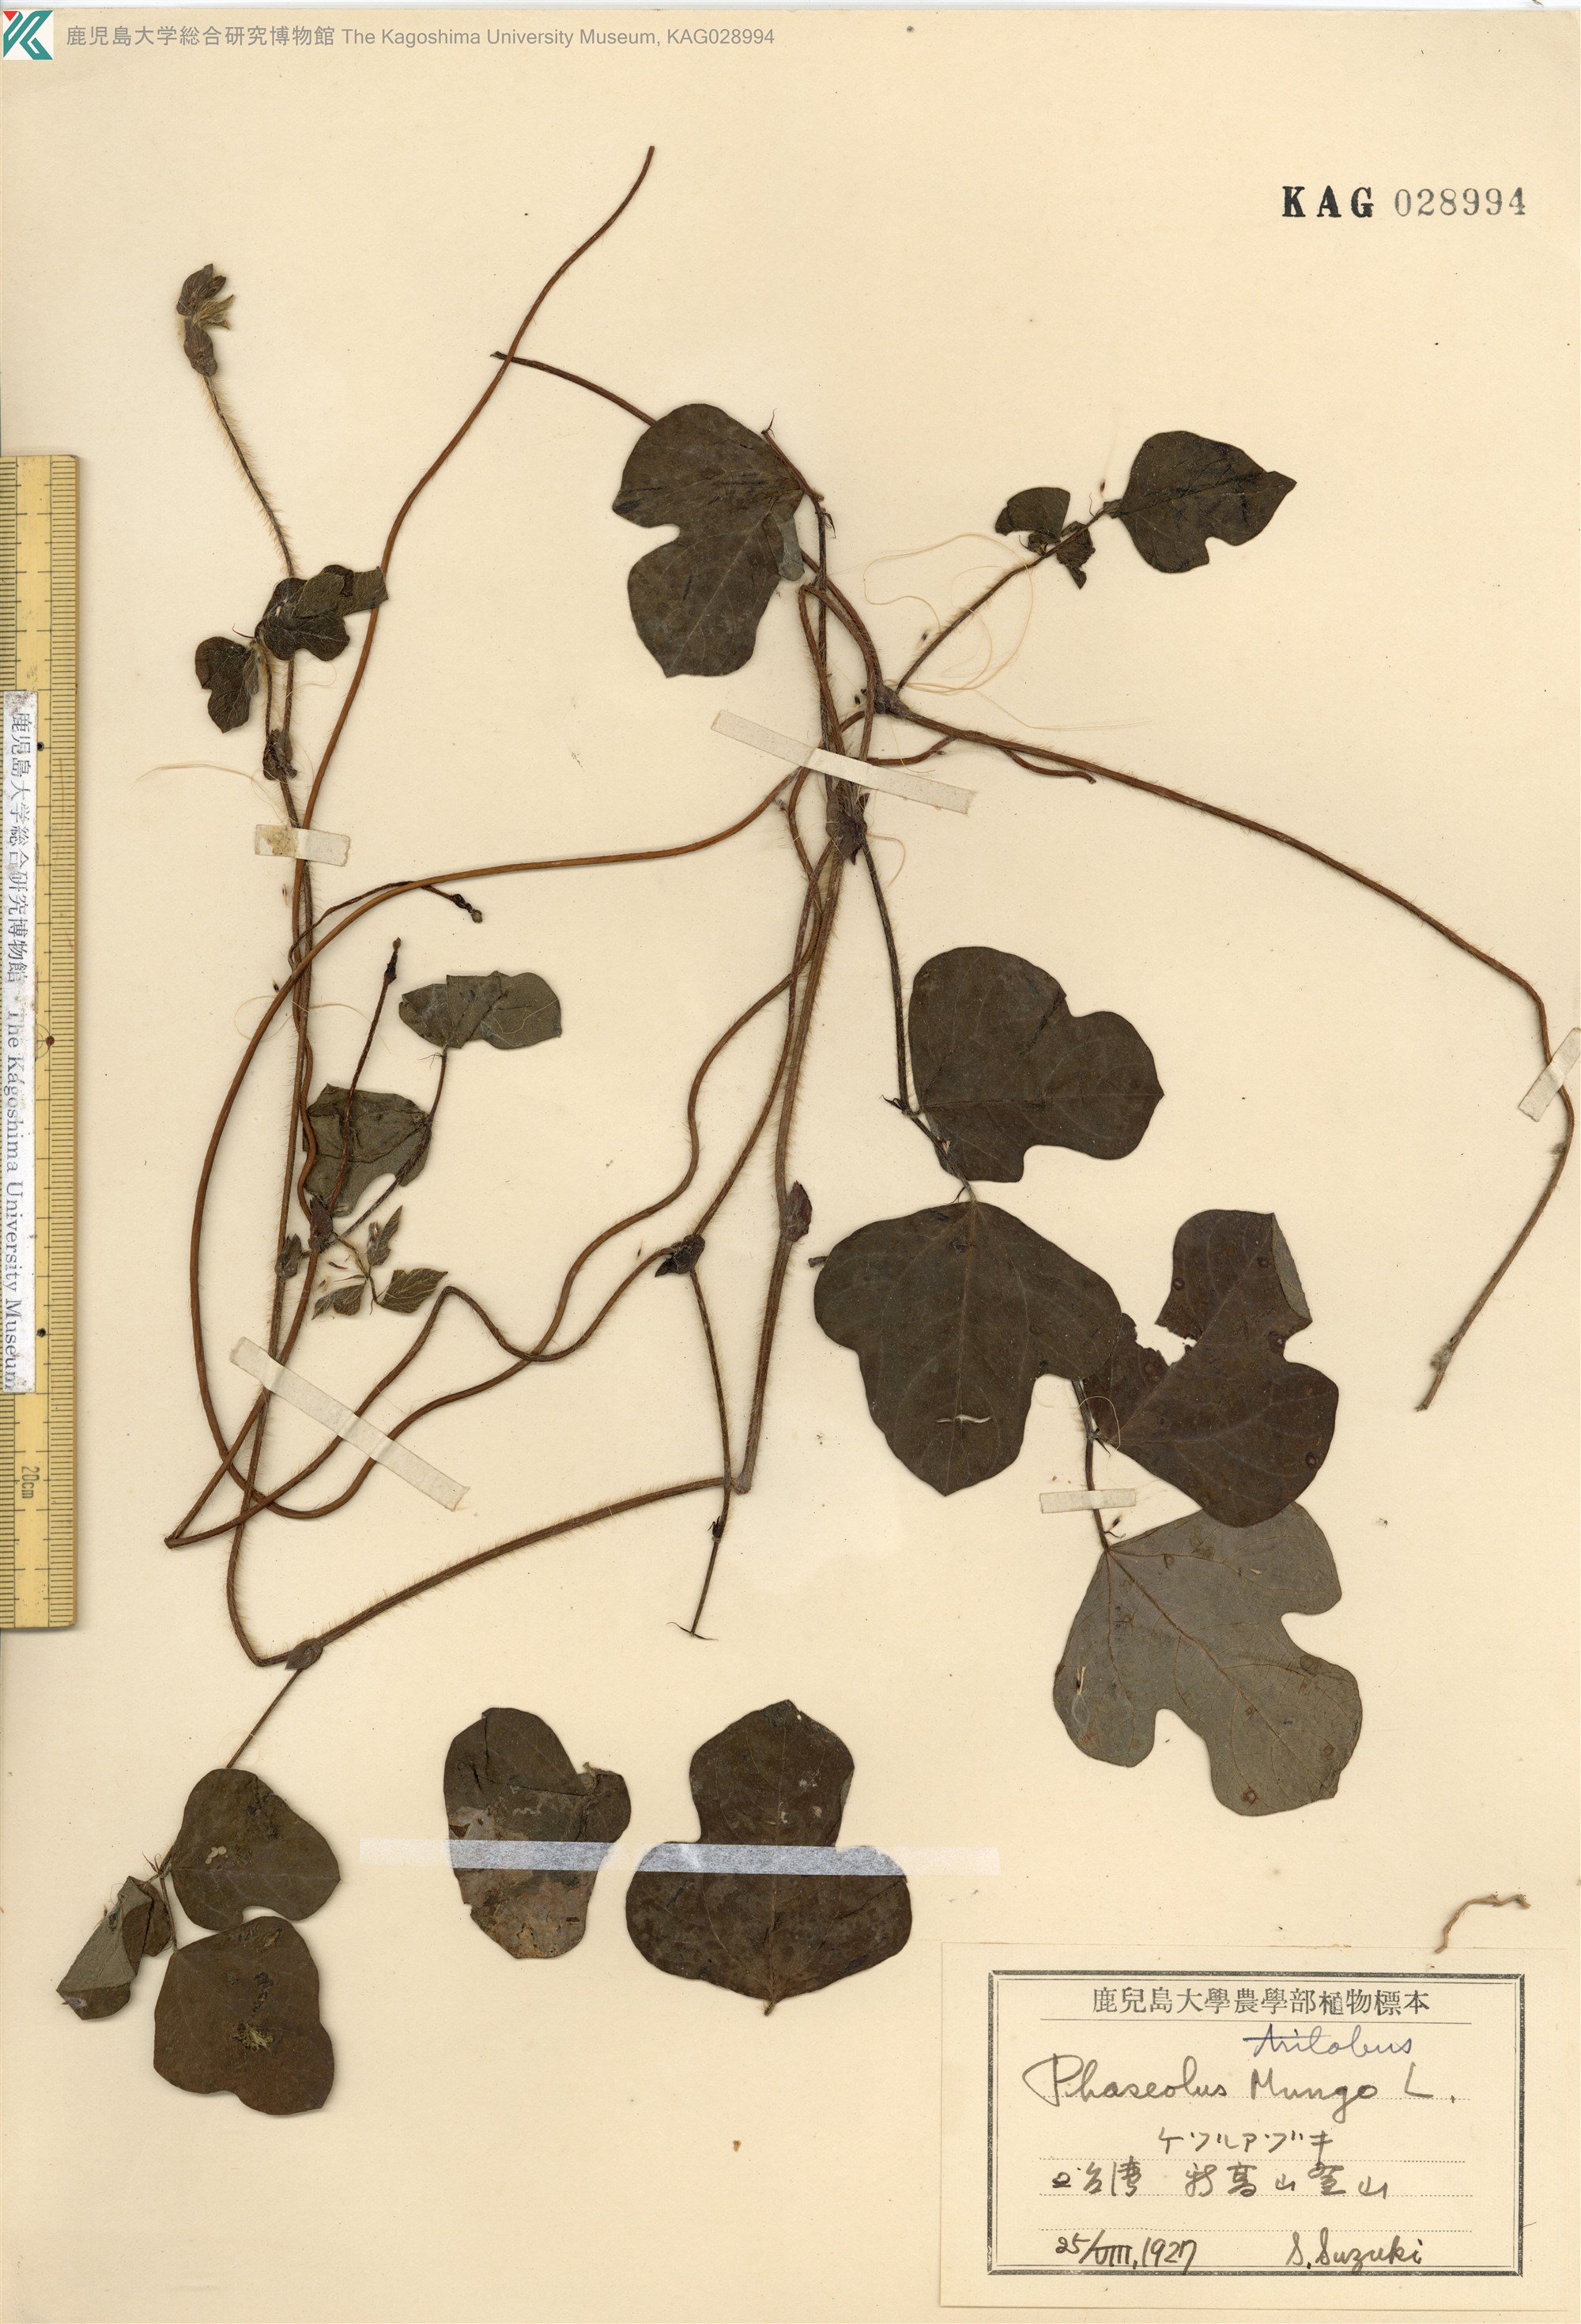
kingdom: Plantae
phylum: Tracheophyta
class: Magnoliopsida
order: Fabales
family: Fabaceae
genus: Phaseolus
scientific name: Phaseolus
